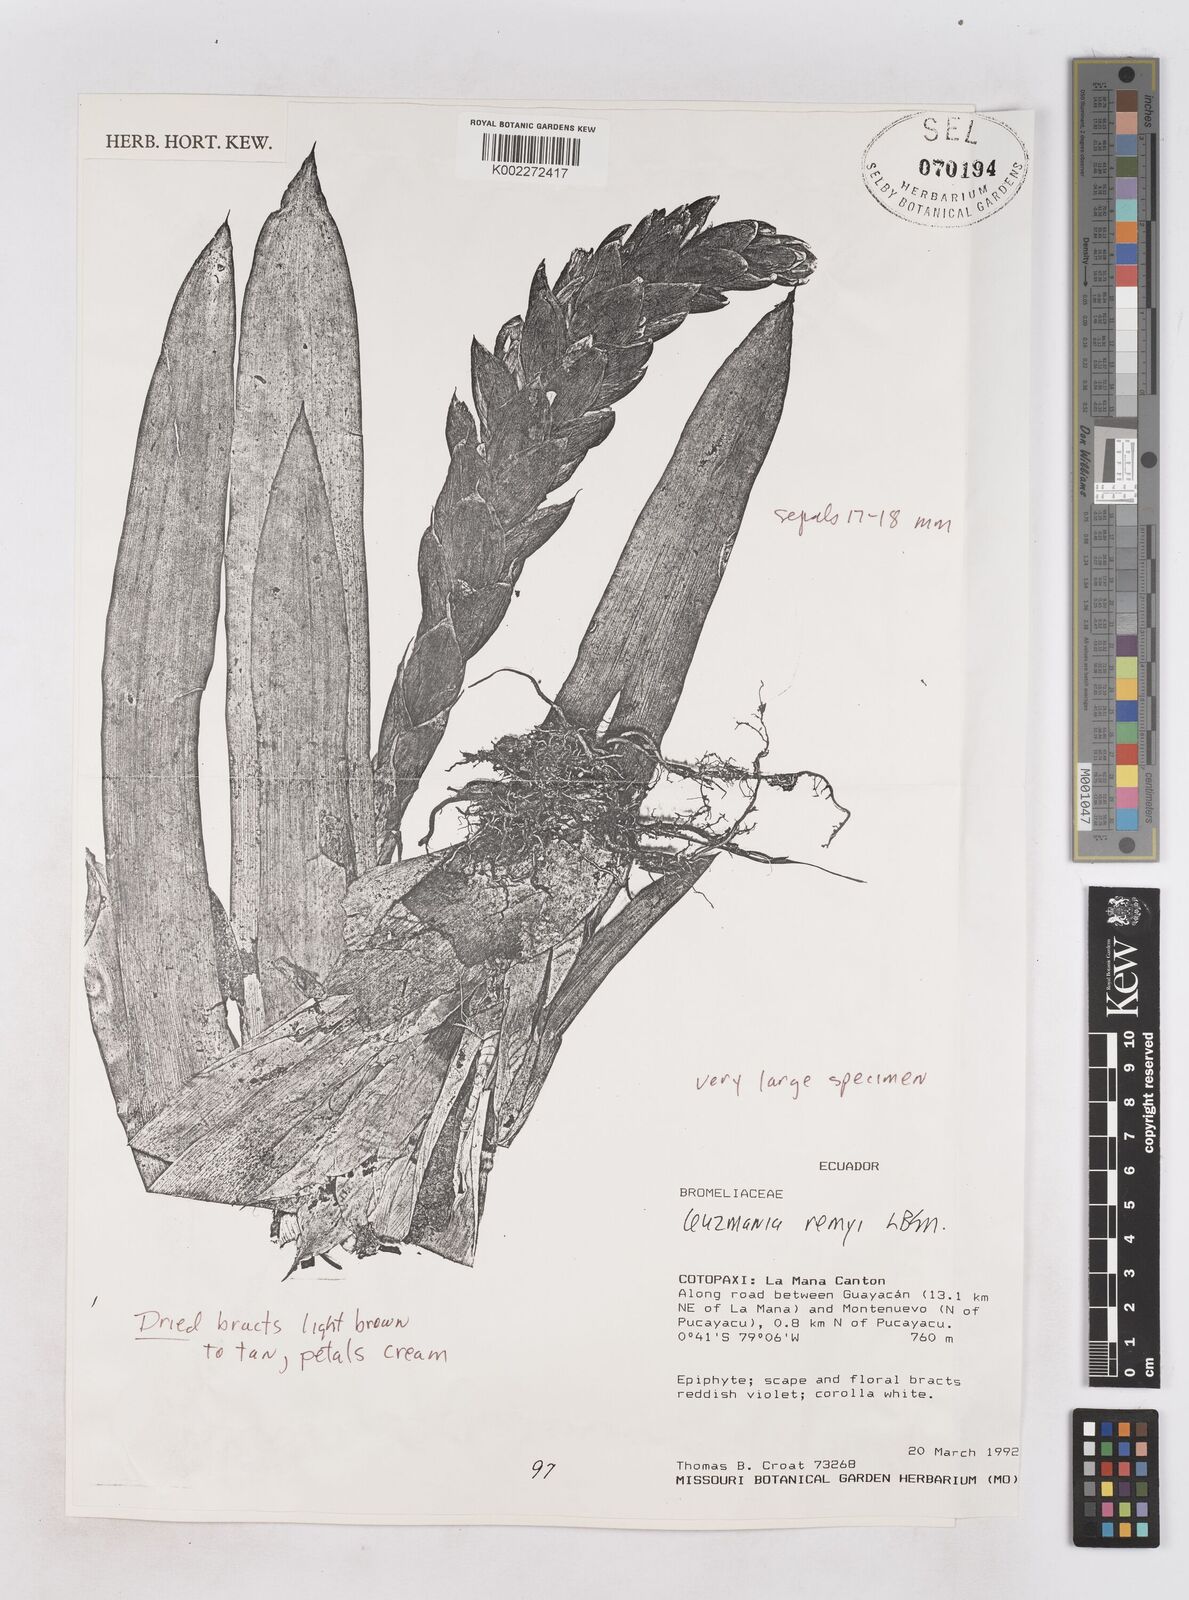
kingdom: Plantae
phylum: Tracheophyta
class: Liliopsida
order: Poales
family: Bromeliaceae
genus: Guzmania
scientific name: Guzmania remyi
